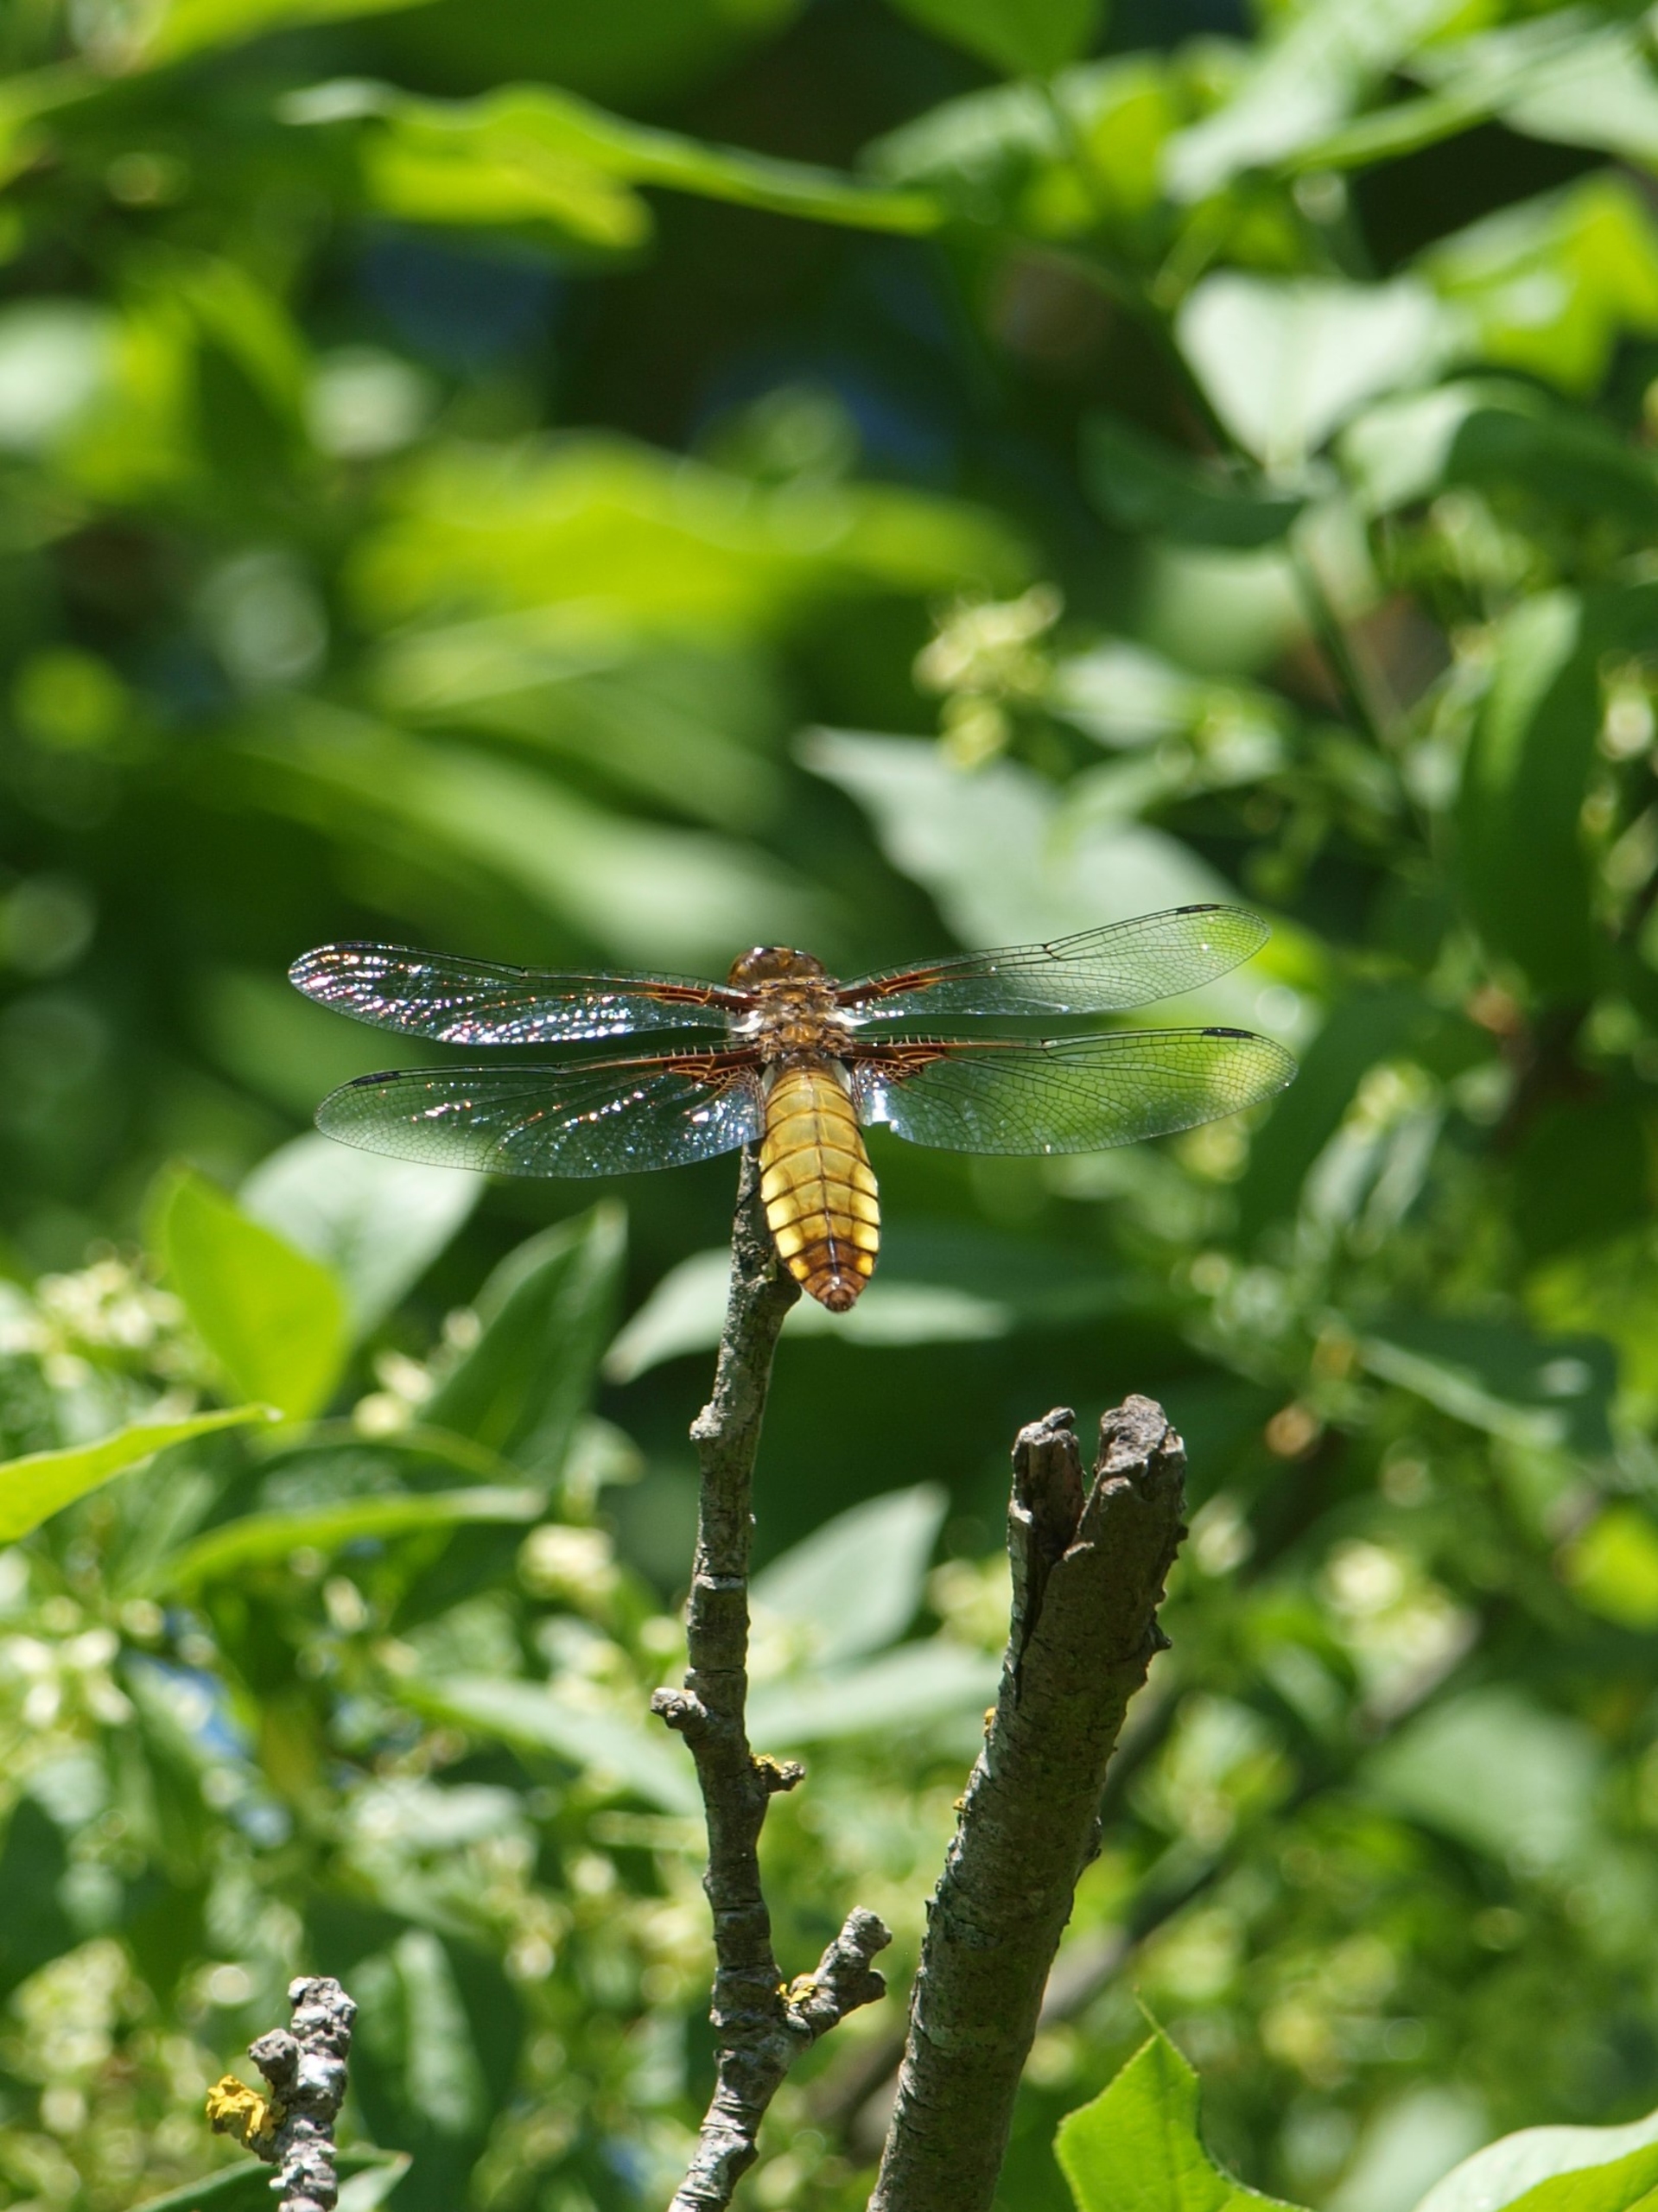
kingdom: Animalia
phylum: Arthropoda
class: Insecta
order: Odonata
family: Libellulidae
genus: Libellula
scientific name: Libellula depressa
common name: Blå libel
